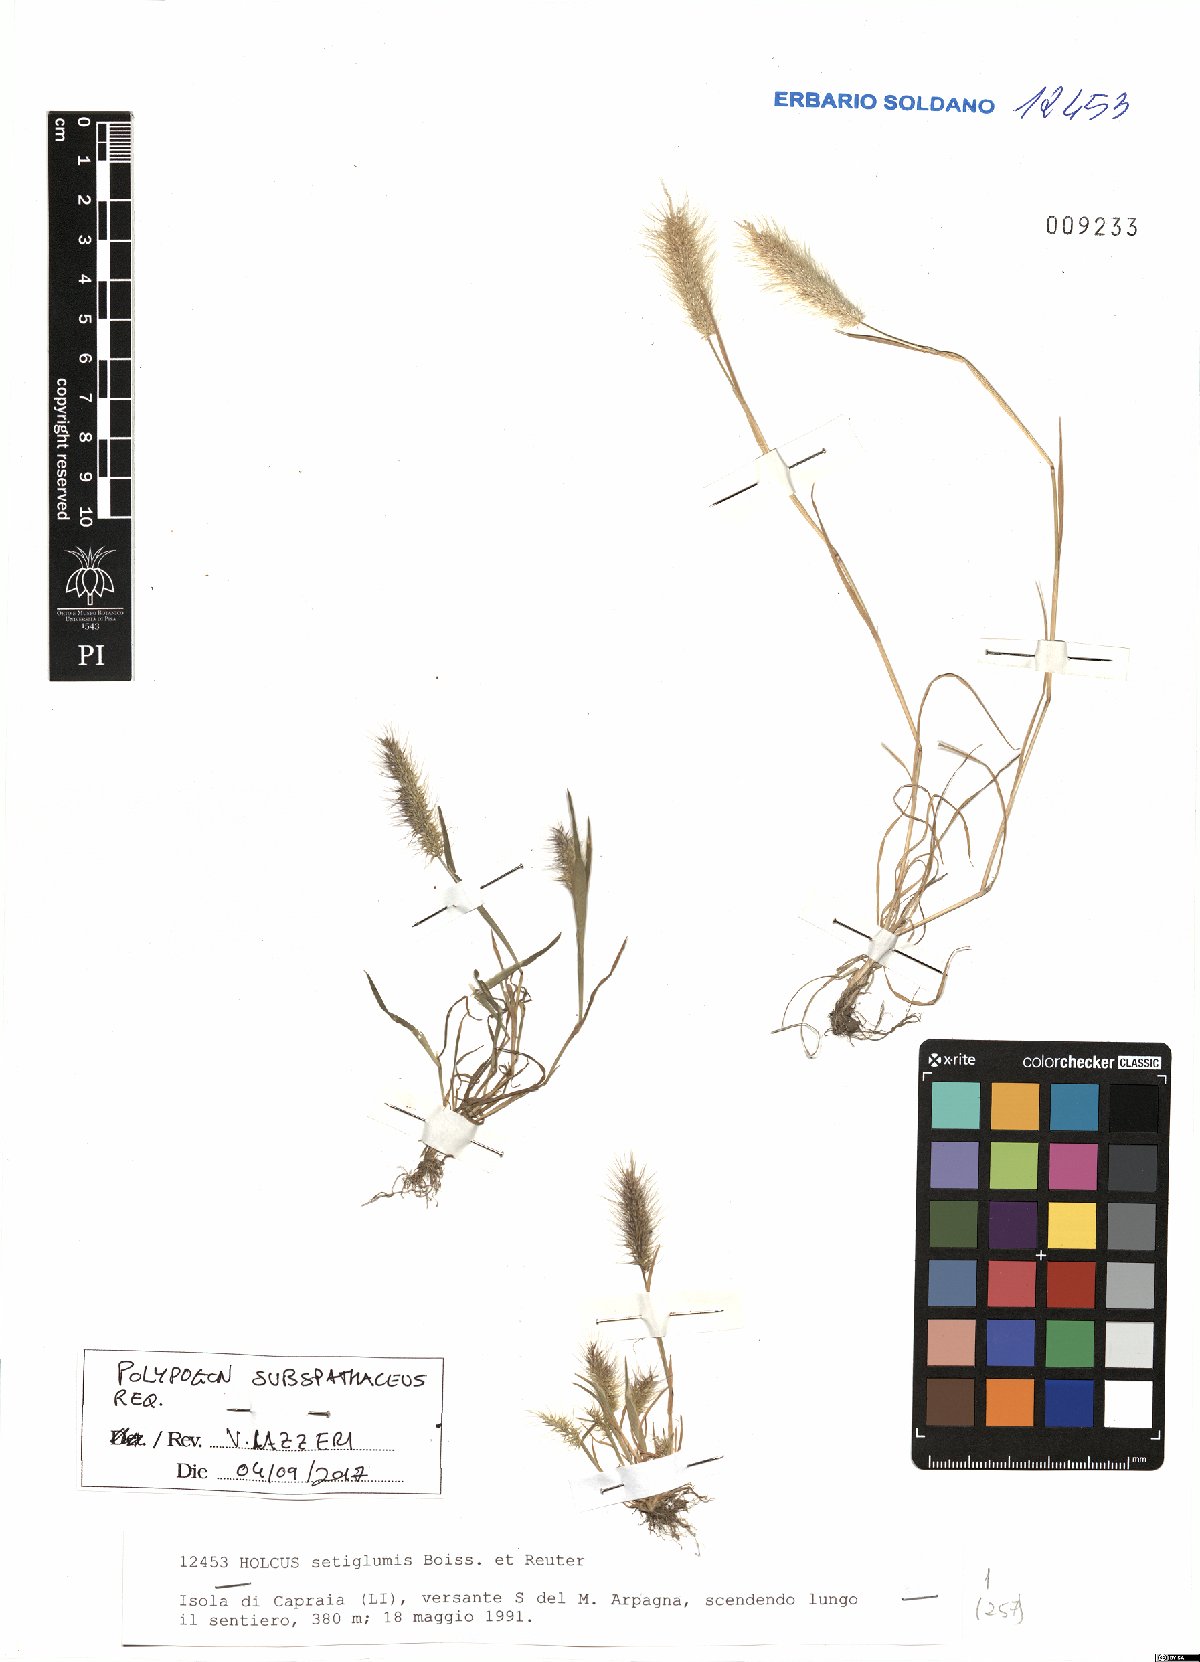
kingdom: Plantae
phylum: Tracheophyta
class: Liliopsida
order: Poales
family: Poaceae
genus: Polypogon
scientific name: Polypogon subspathaceus
